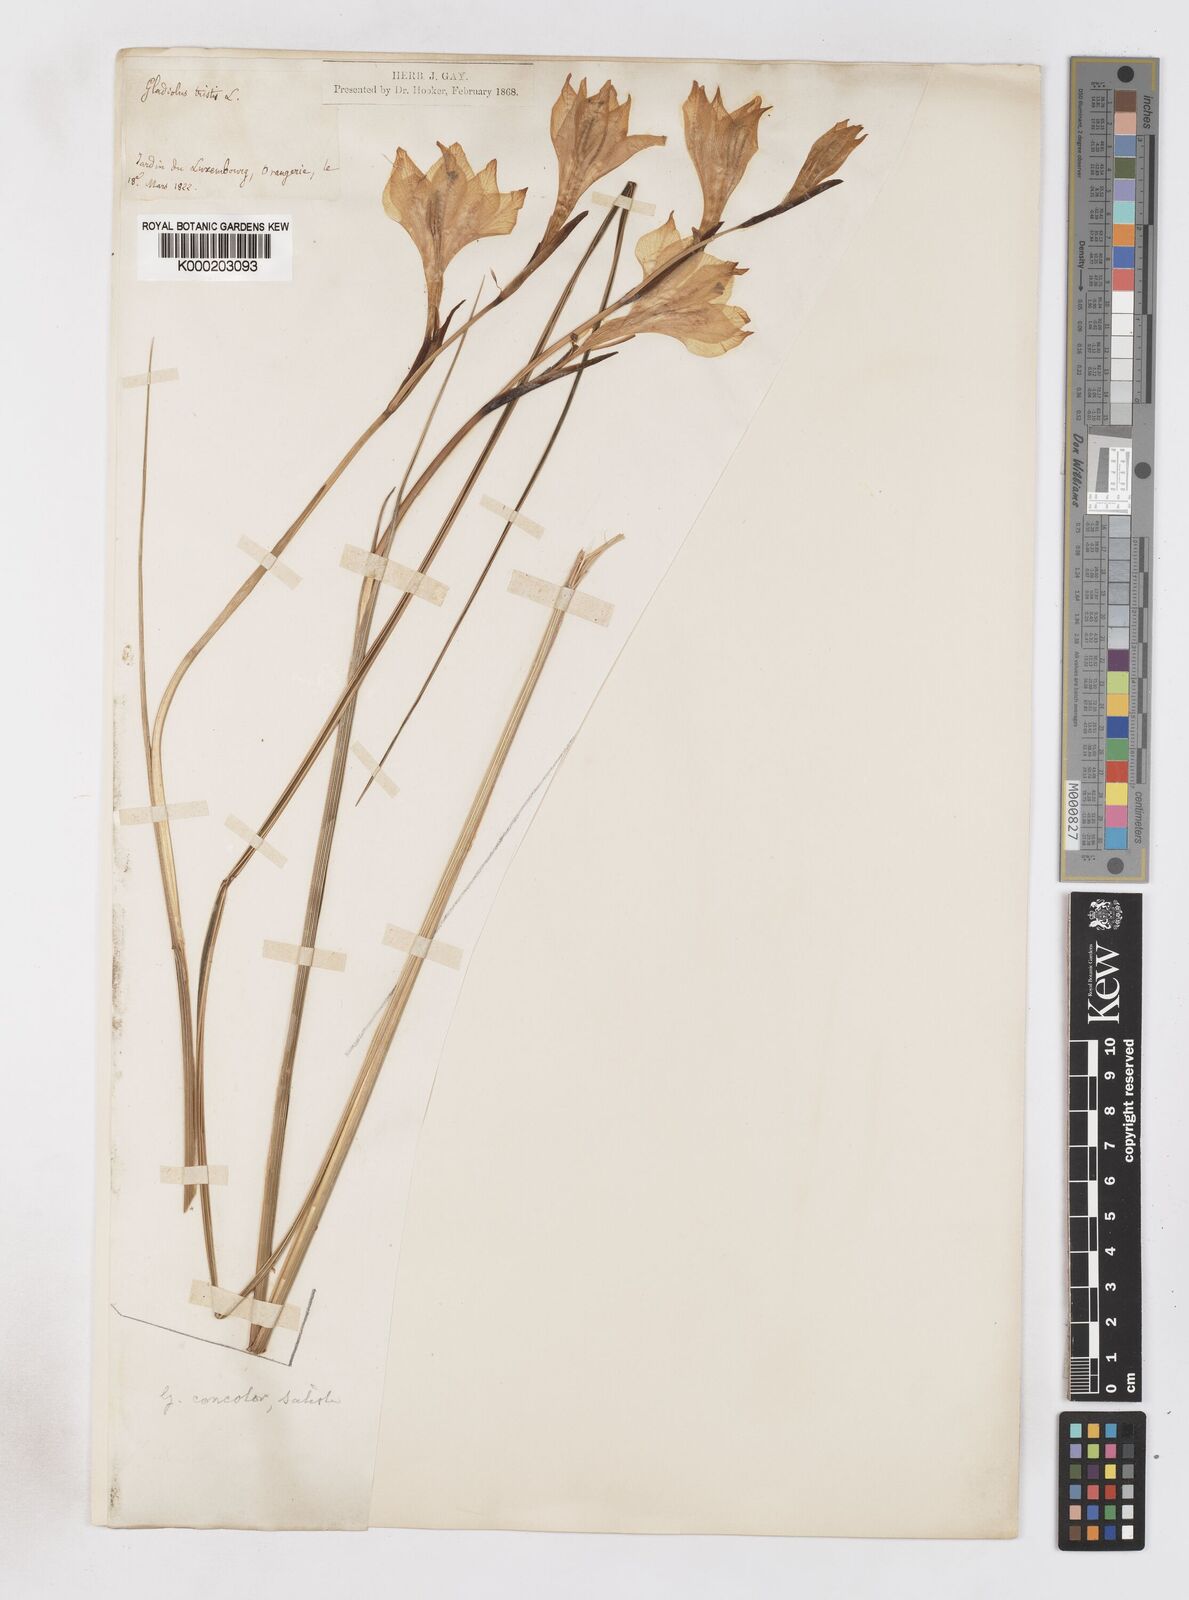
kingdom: Plantae
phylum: Tracheophyta
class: Liliopsida
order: Asparagales
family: Iridaceae
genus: Gladiolus
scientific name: Gladiolus tristis
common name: Ever-flowering gladiolus
